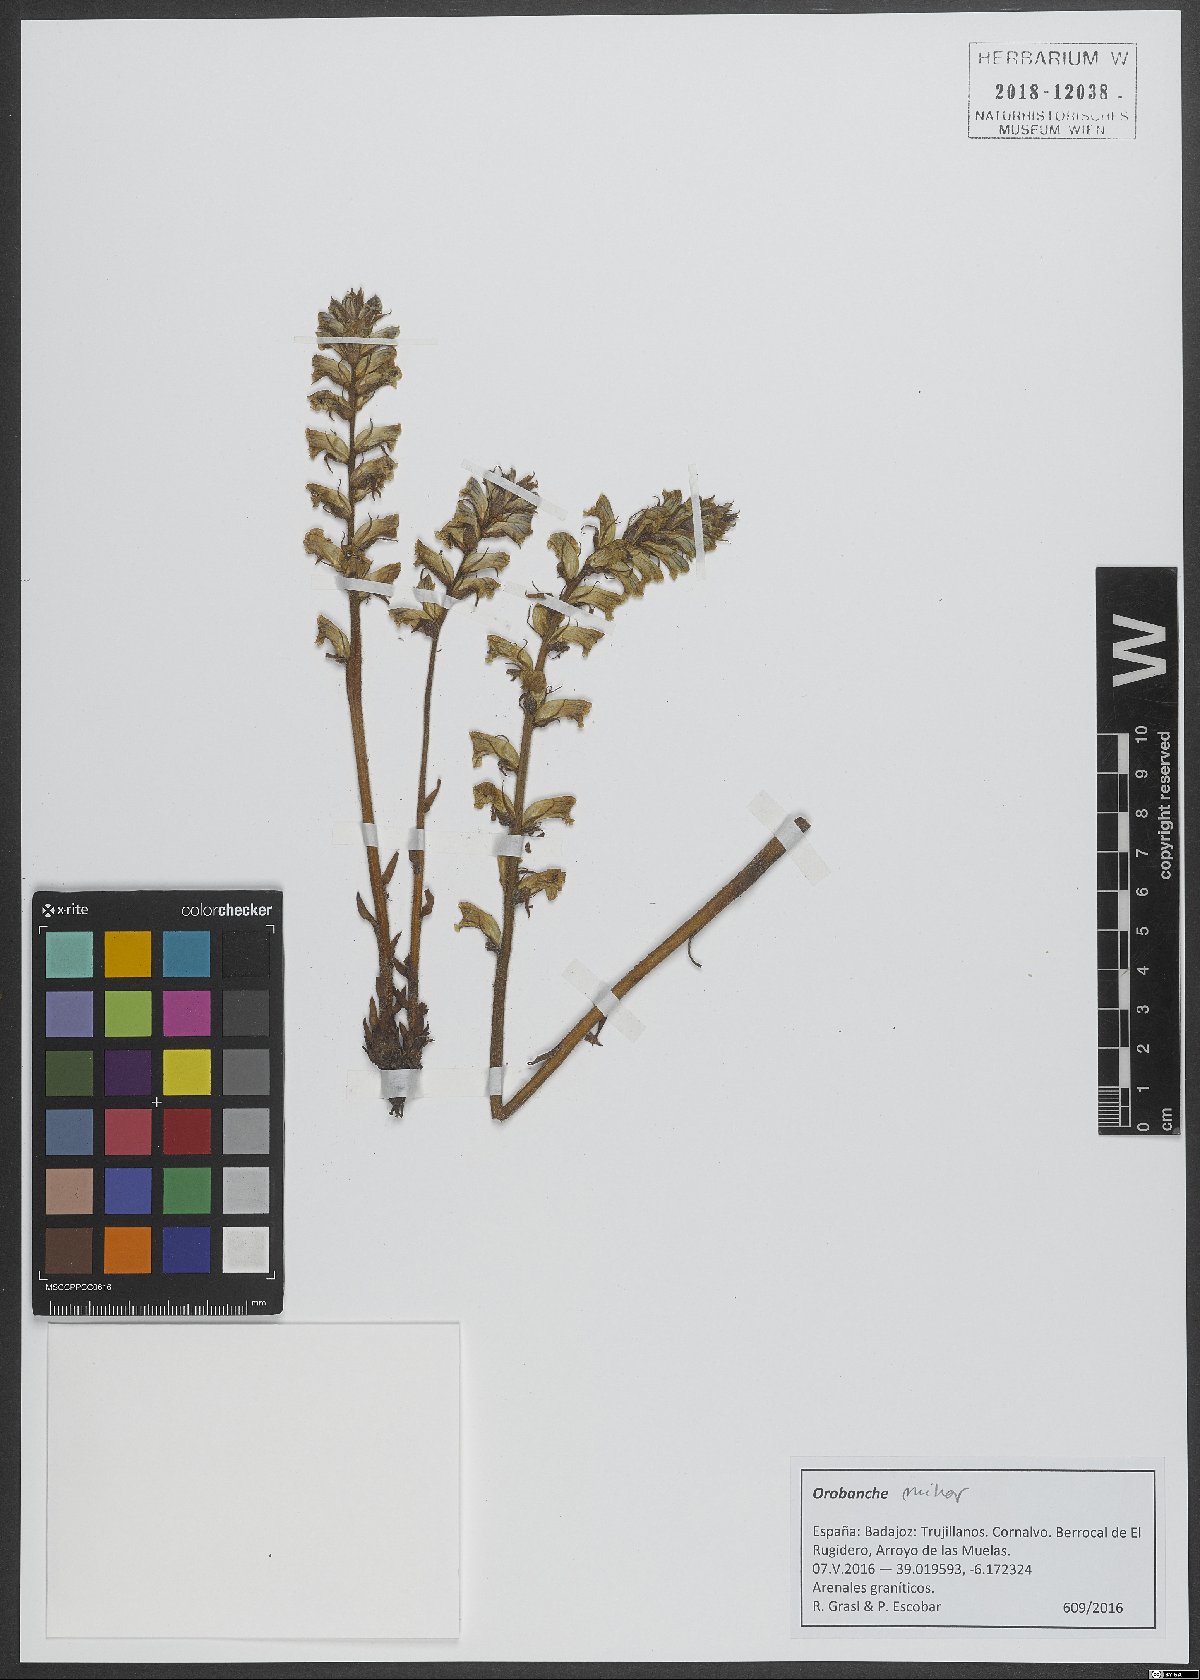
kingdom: Plantae
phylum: Tracheophyta
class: Magnoliopsida
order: Lamiales
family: Orobanchaceae
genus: Orobanche
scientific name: Orobanche minor
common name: Common broomrape
